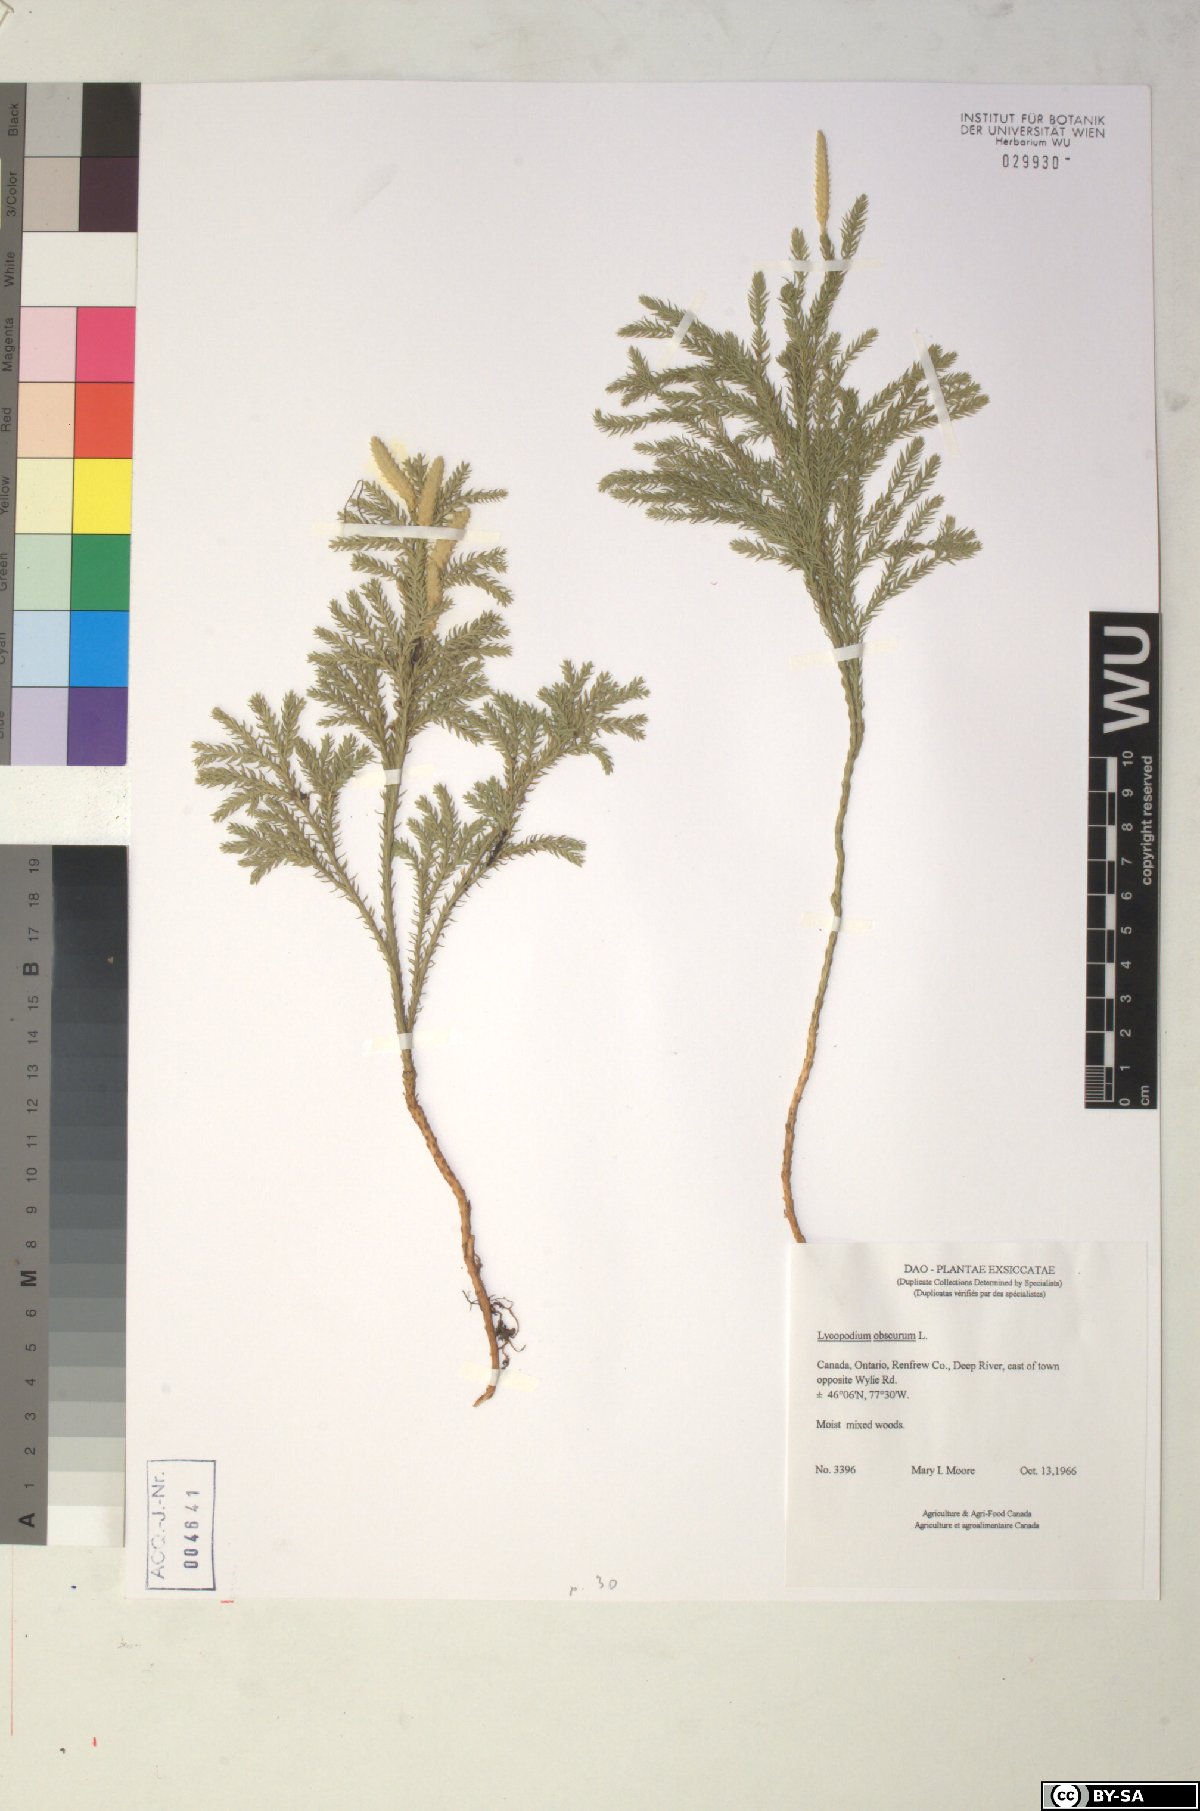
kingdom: Plantae
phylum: Tracheophyta
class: Lycopodiopsida
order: Lycopodiales
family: Lycopodiaceae
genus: Dendrolycopodium
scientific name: Dendrolycopodium obscurum
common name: Common ground-pine
